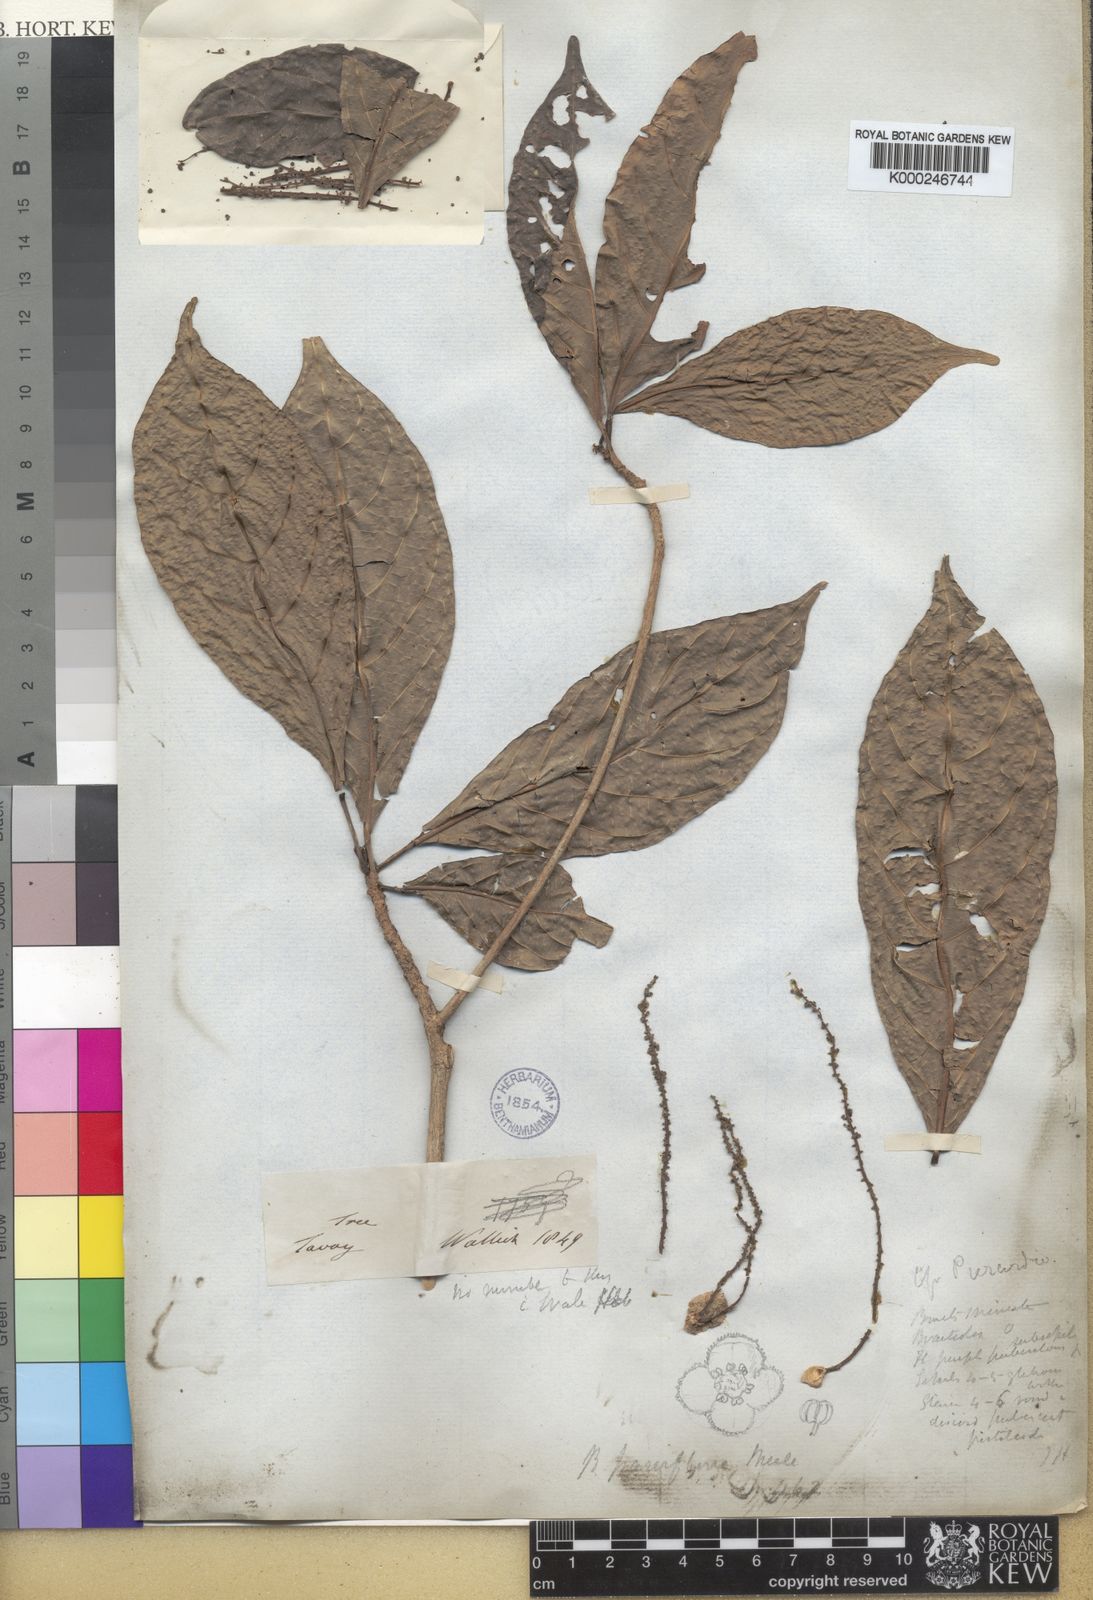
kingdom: Plantae
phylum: Tracheophyta
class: Magnoliopsida
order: Malpighiales
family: Phyllanthaceae
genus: Baccaurea
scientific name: Baccaurea
